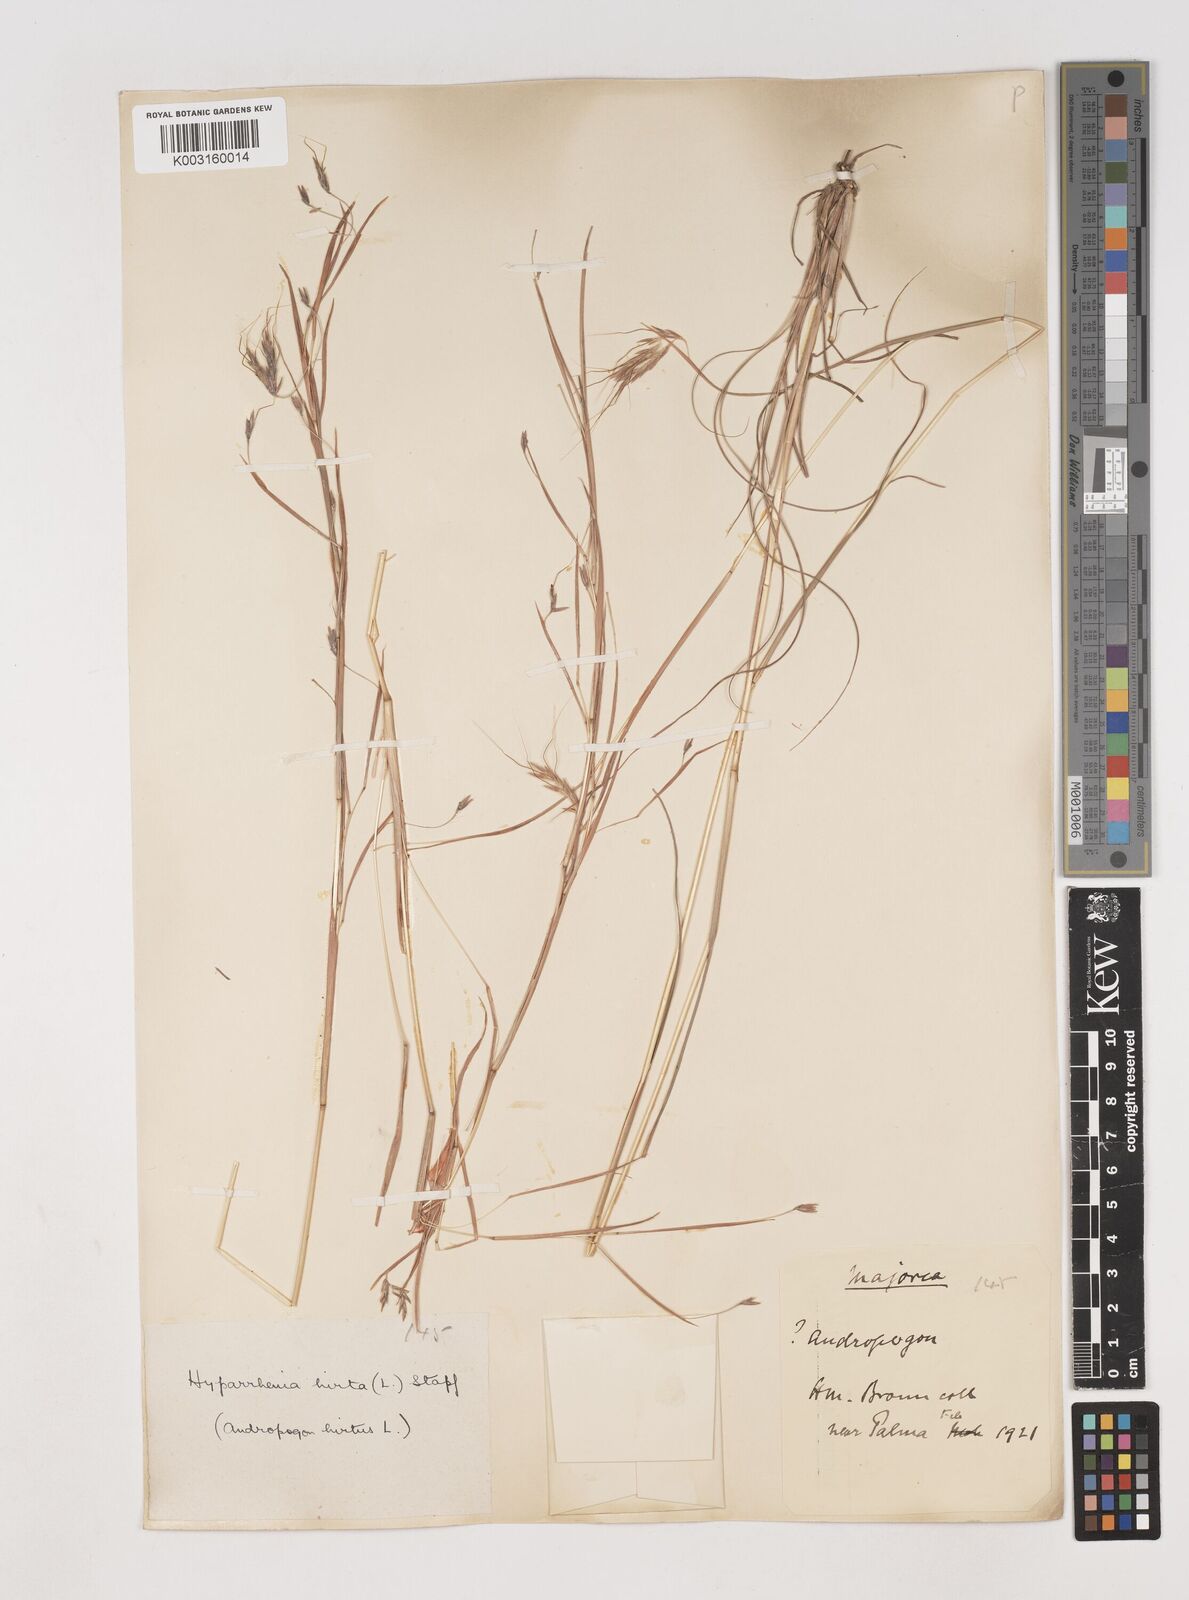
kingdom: Plantae
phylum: Tracheophyta
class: Liliopsida
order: Poales
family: Poaceae
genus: Hyparrhenia
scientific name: Hyparrhenia hirta
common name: Thatching grass
